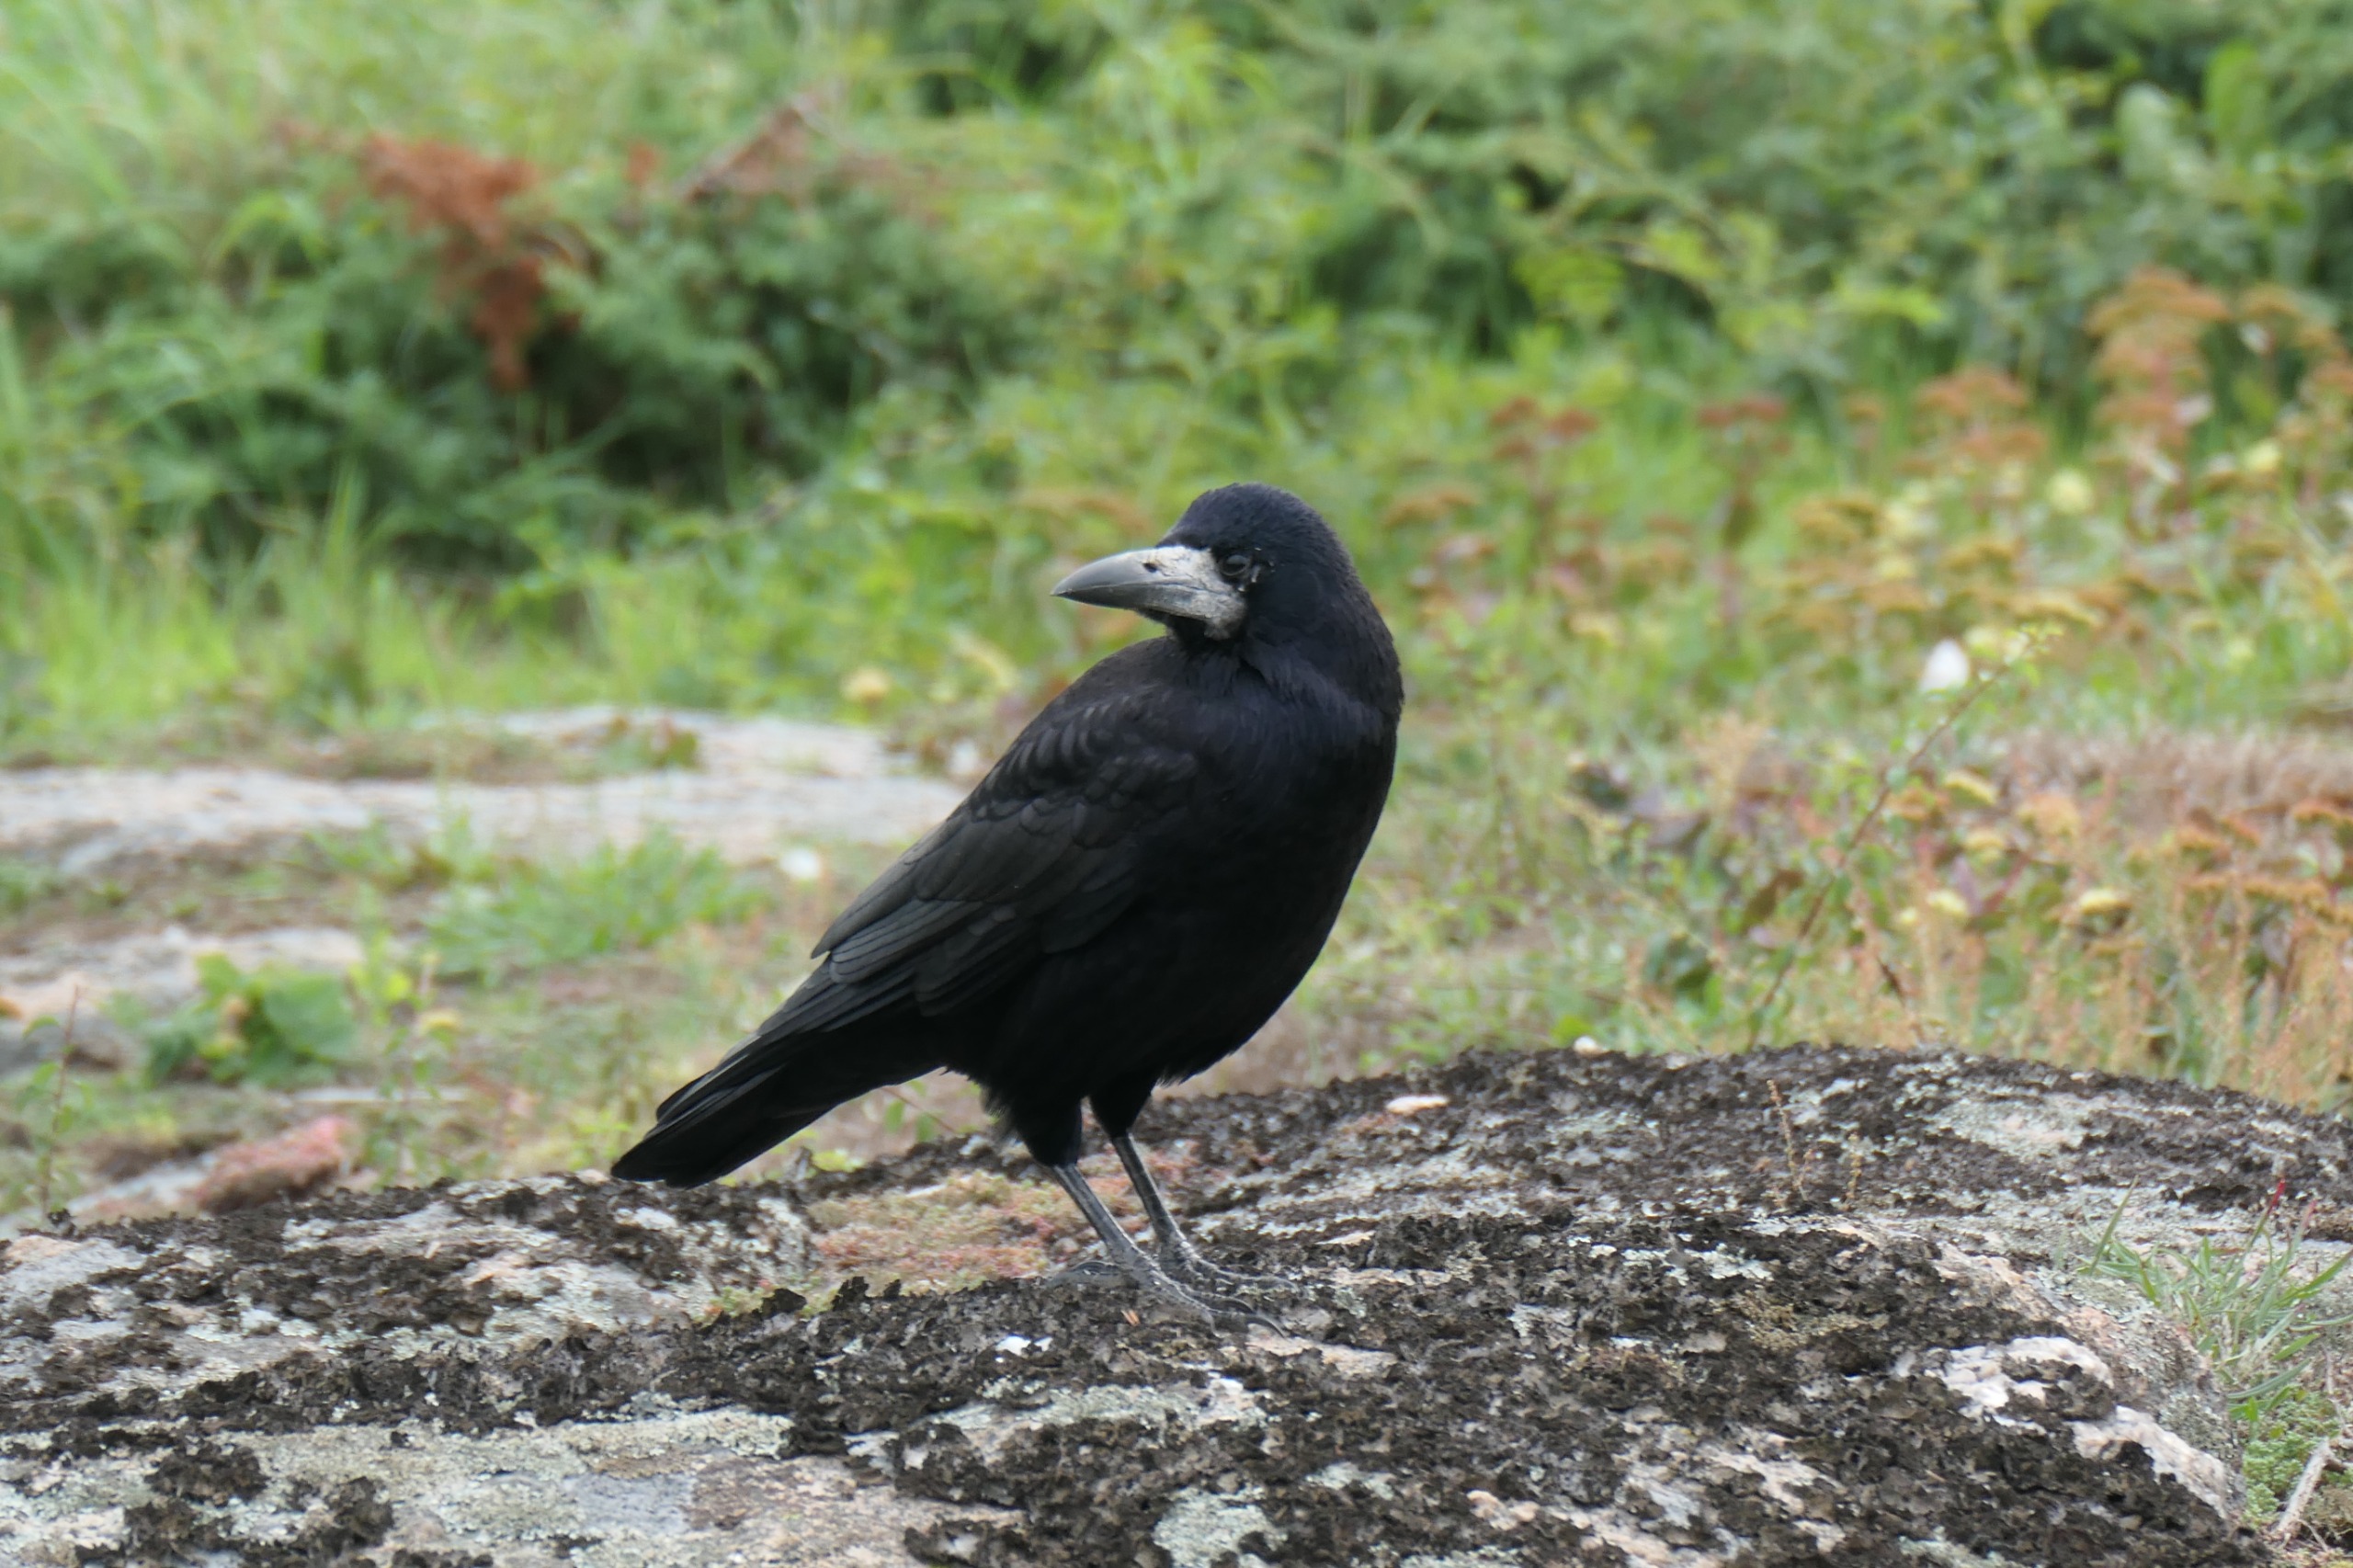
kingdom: Animalia
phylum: Chordata
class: Aves
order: Passeriformes
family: Corvidae
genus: Corvus
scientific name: Corvus frugilegus
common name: Råge
